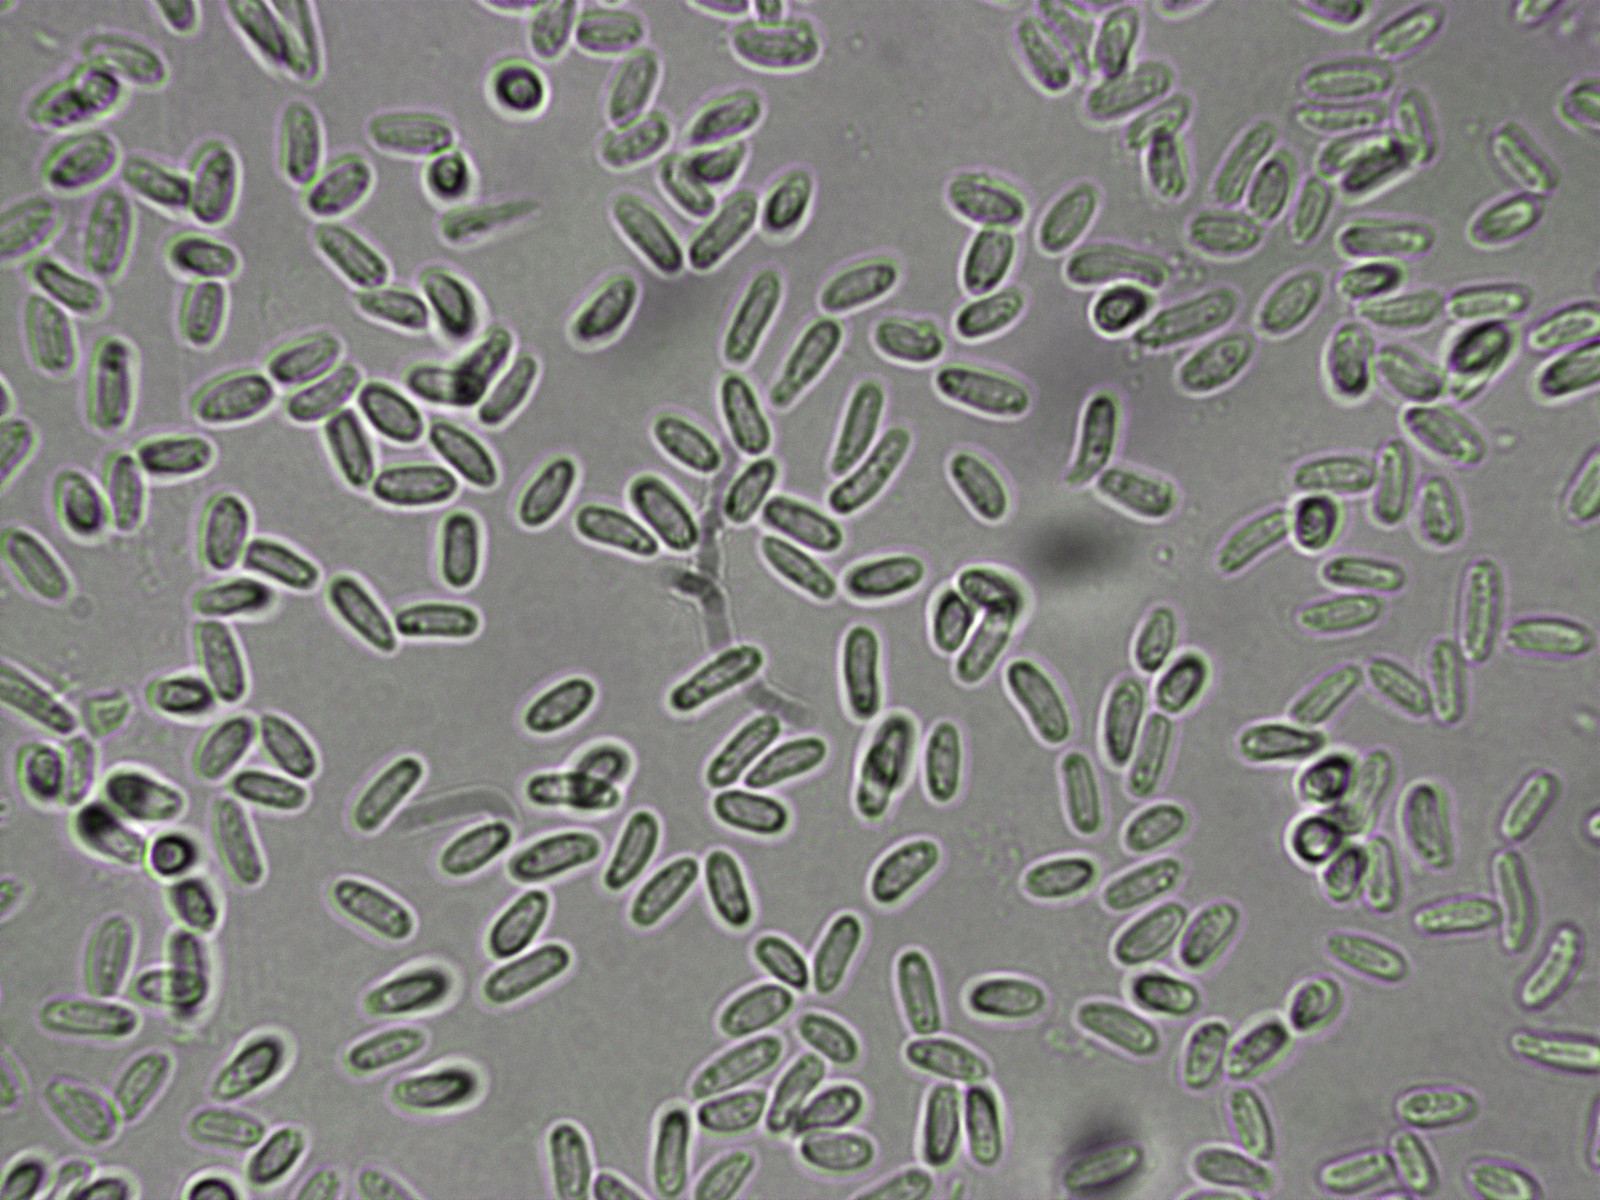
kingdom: Fungi
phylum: Ascomycota
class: Dothideomycetes
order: Pleosporales
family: Diademaceae
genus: Comoclathris
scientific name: Comoclathris typhicola
